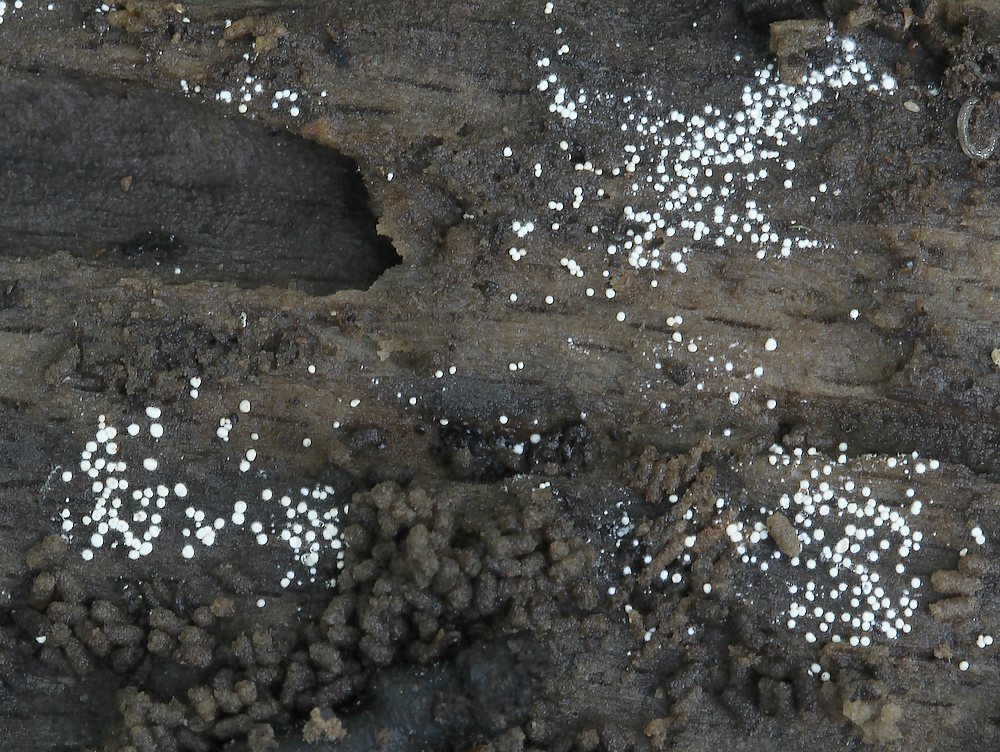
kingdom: Fungi
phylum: Basidiomycota
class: Agaricomycetes
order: Trechisporales
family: Hydnodontaceae
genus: Subulicystidium
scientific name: Subulicystidium longisporum
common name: almindelig pigtrådshinde
